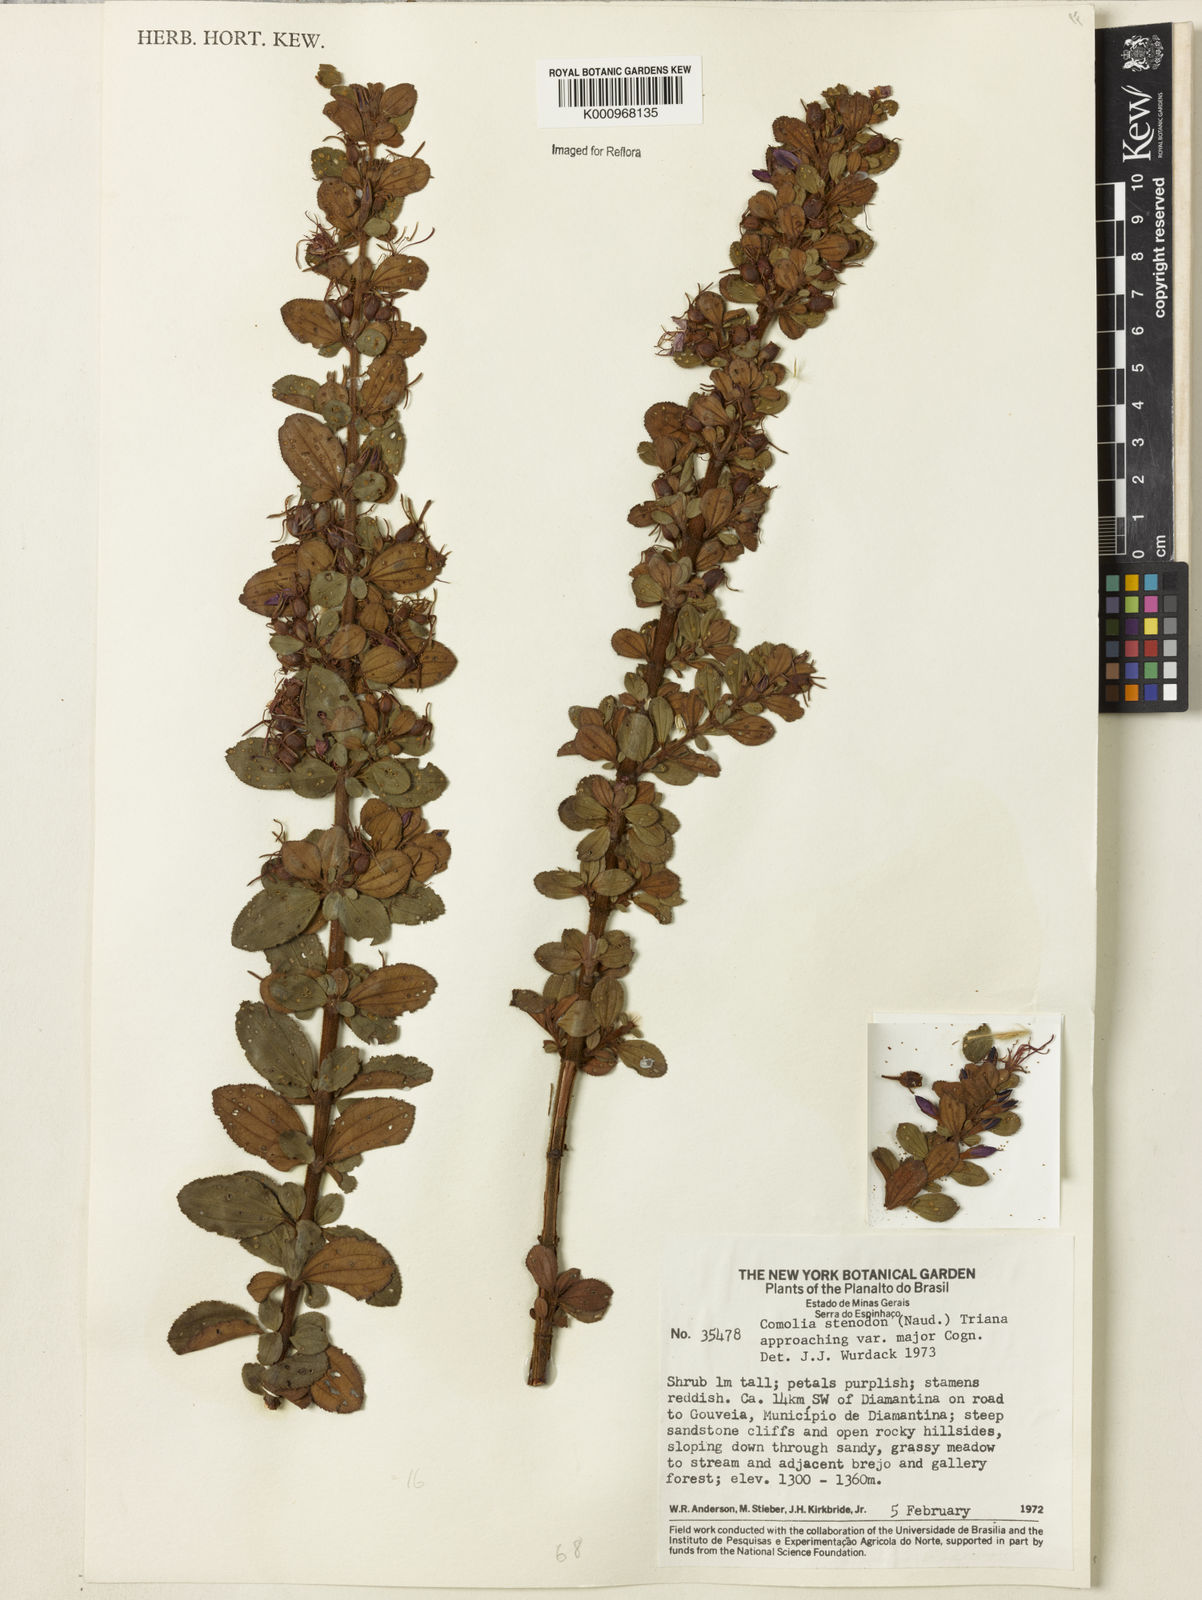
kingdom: Plantae
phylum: Tracheophyta
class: Magnoliopsida
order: Myrtales
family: Melastomataceae
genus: Fritzschia
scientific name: Fritzschia stenodon
